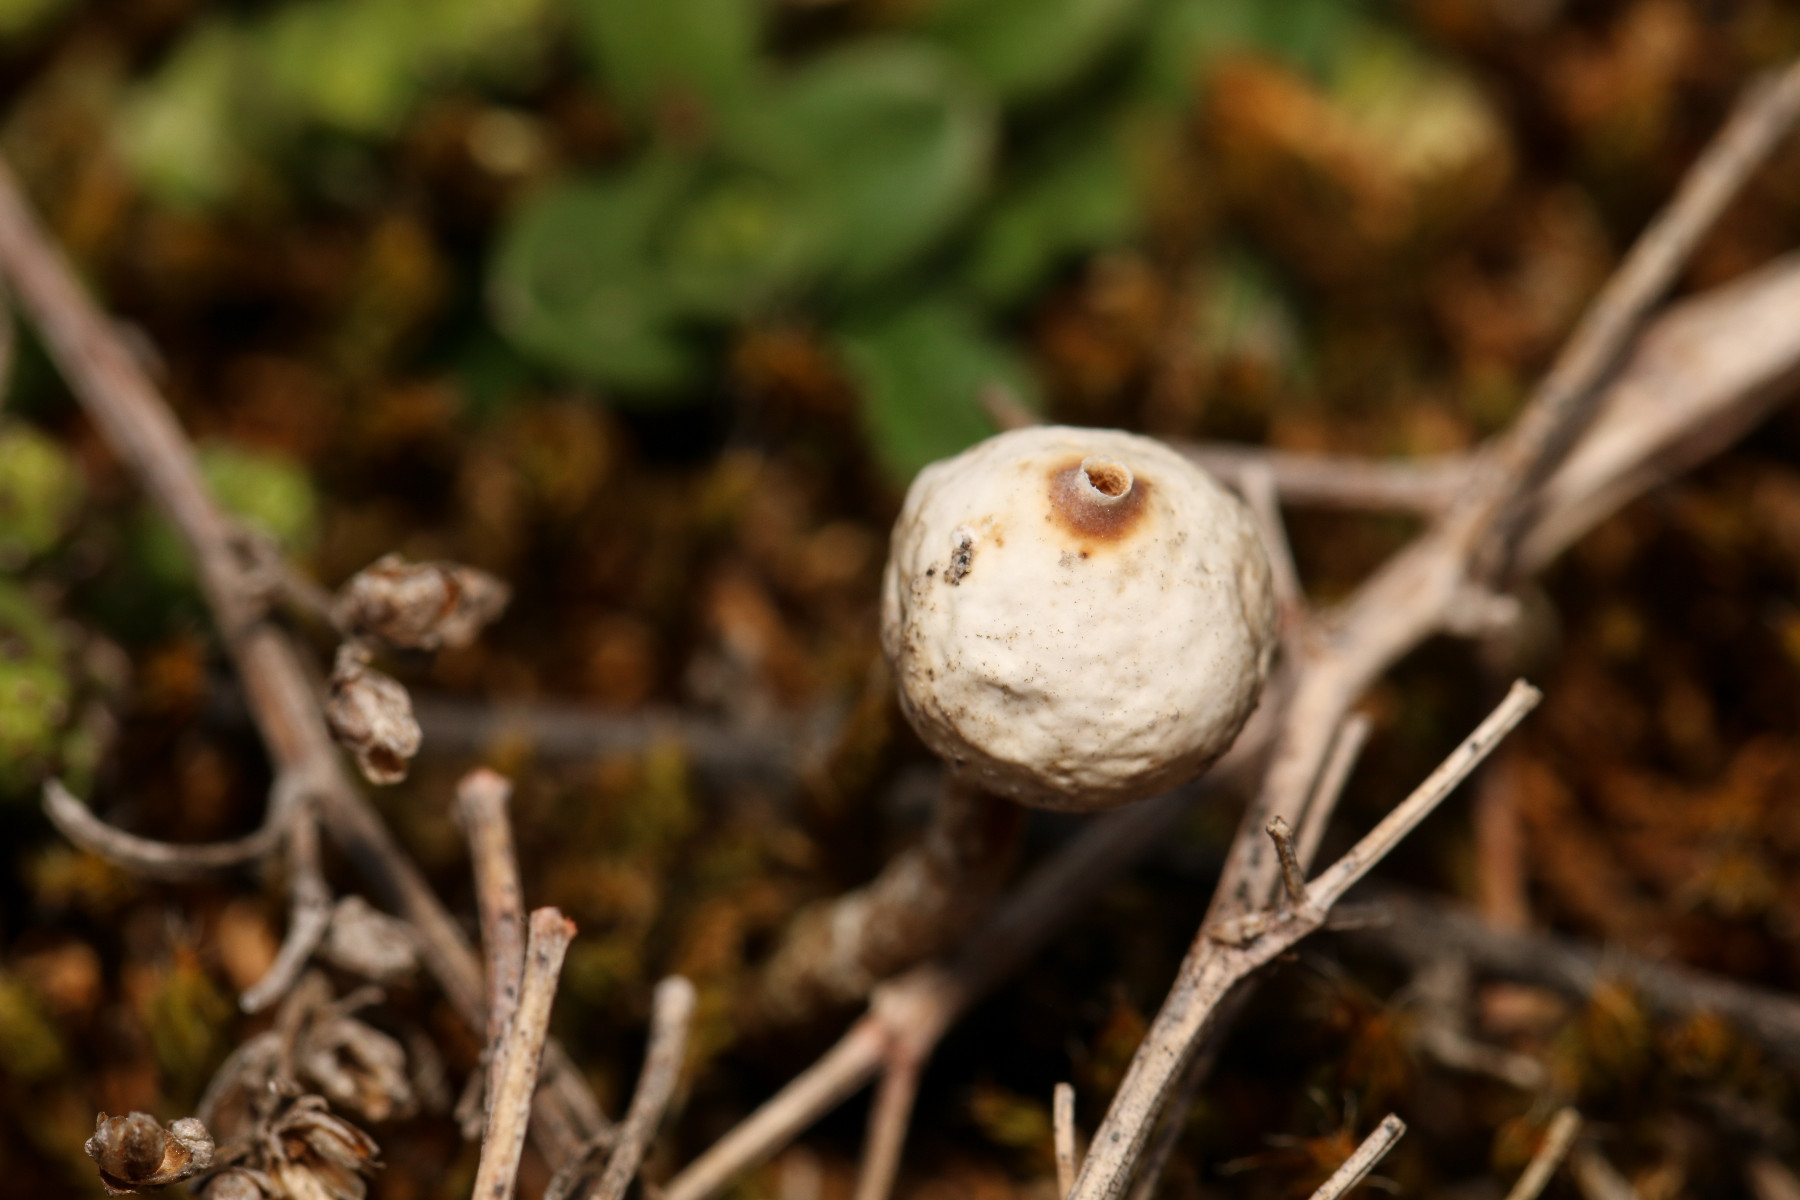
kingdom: Fungi
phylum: Basidiomycota
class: Agaricomycetes
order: Agaricales
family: Agaricaceae
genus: Tulostoma
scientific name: Tulostoma brumale
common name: vinter-stilkbovist
